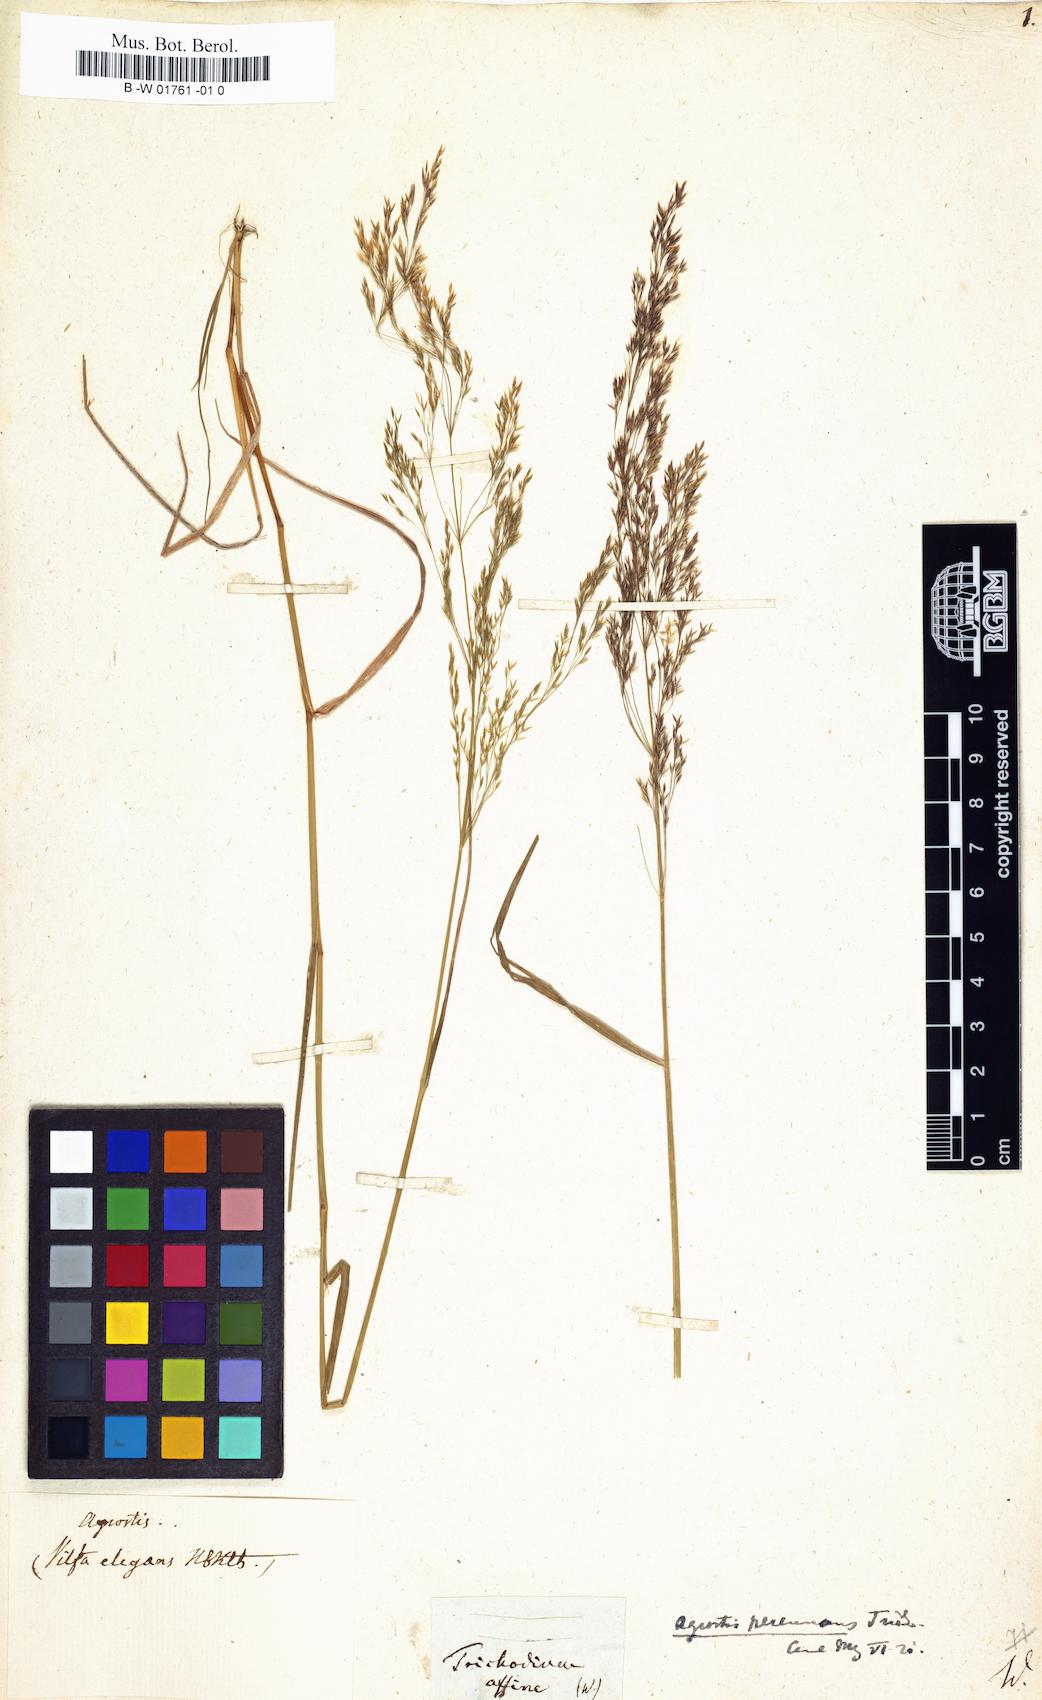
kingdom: Plantae
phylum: Tracheophyta
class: Liliopsida
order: Poales
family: Poaceae
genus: Agrostis
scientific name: Agrostis perennans
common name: Autumn bent
